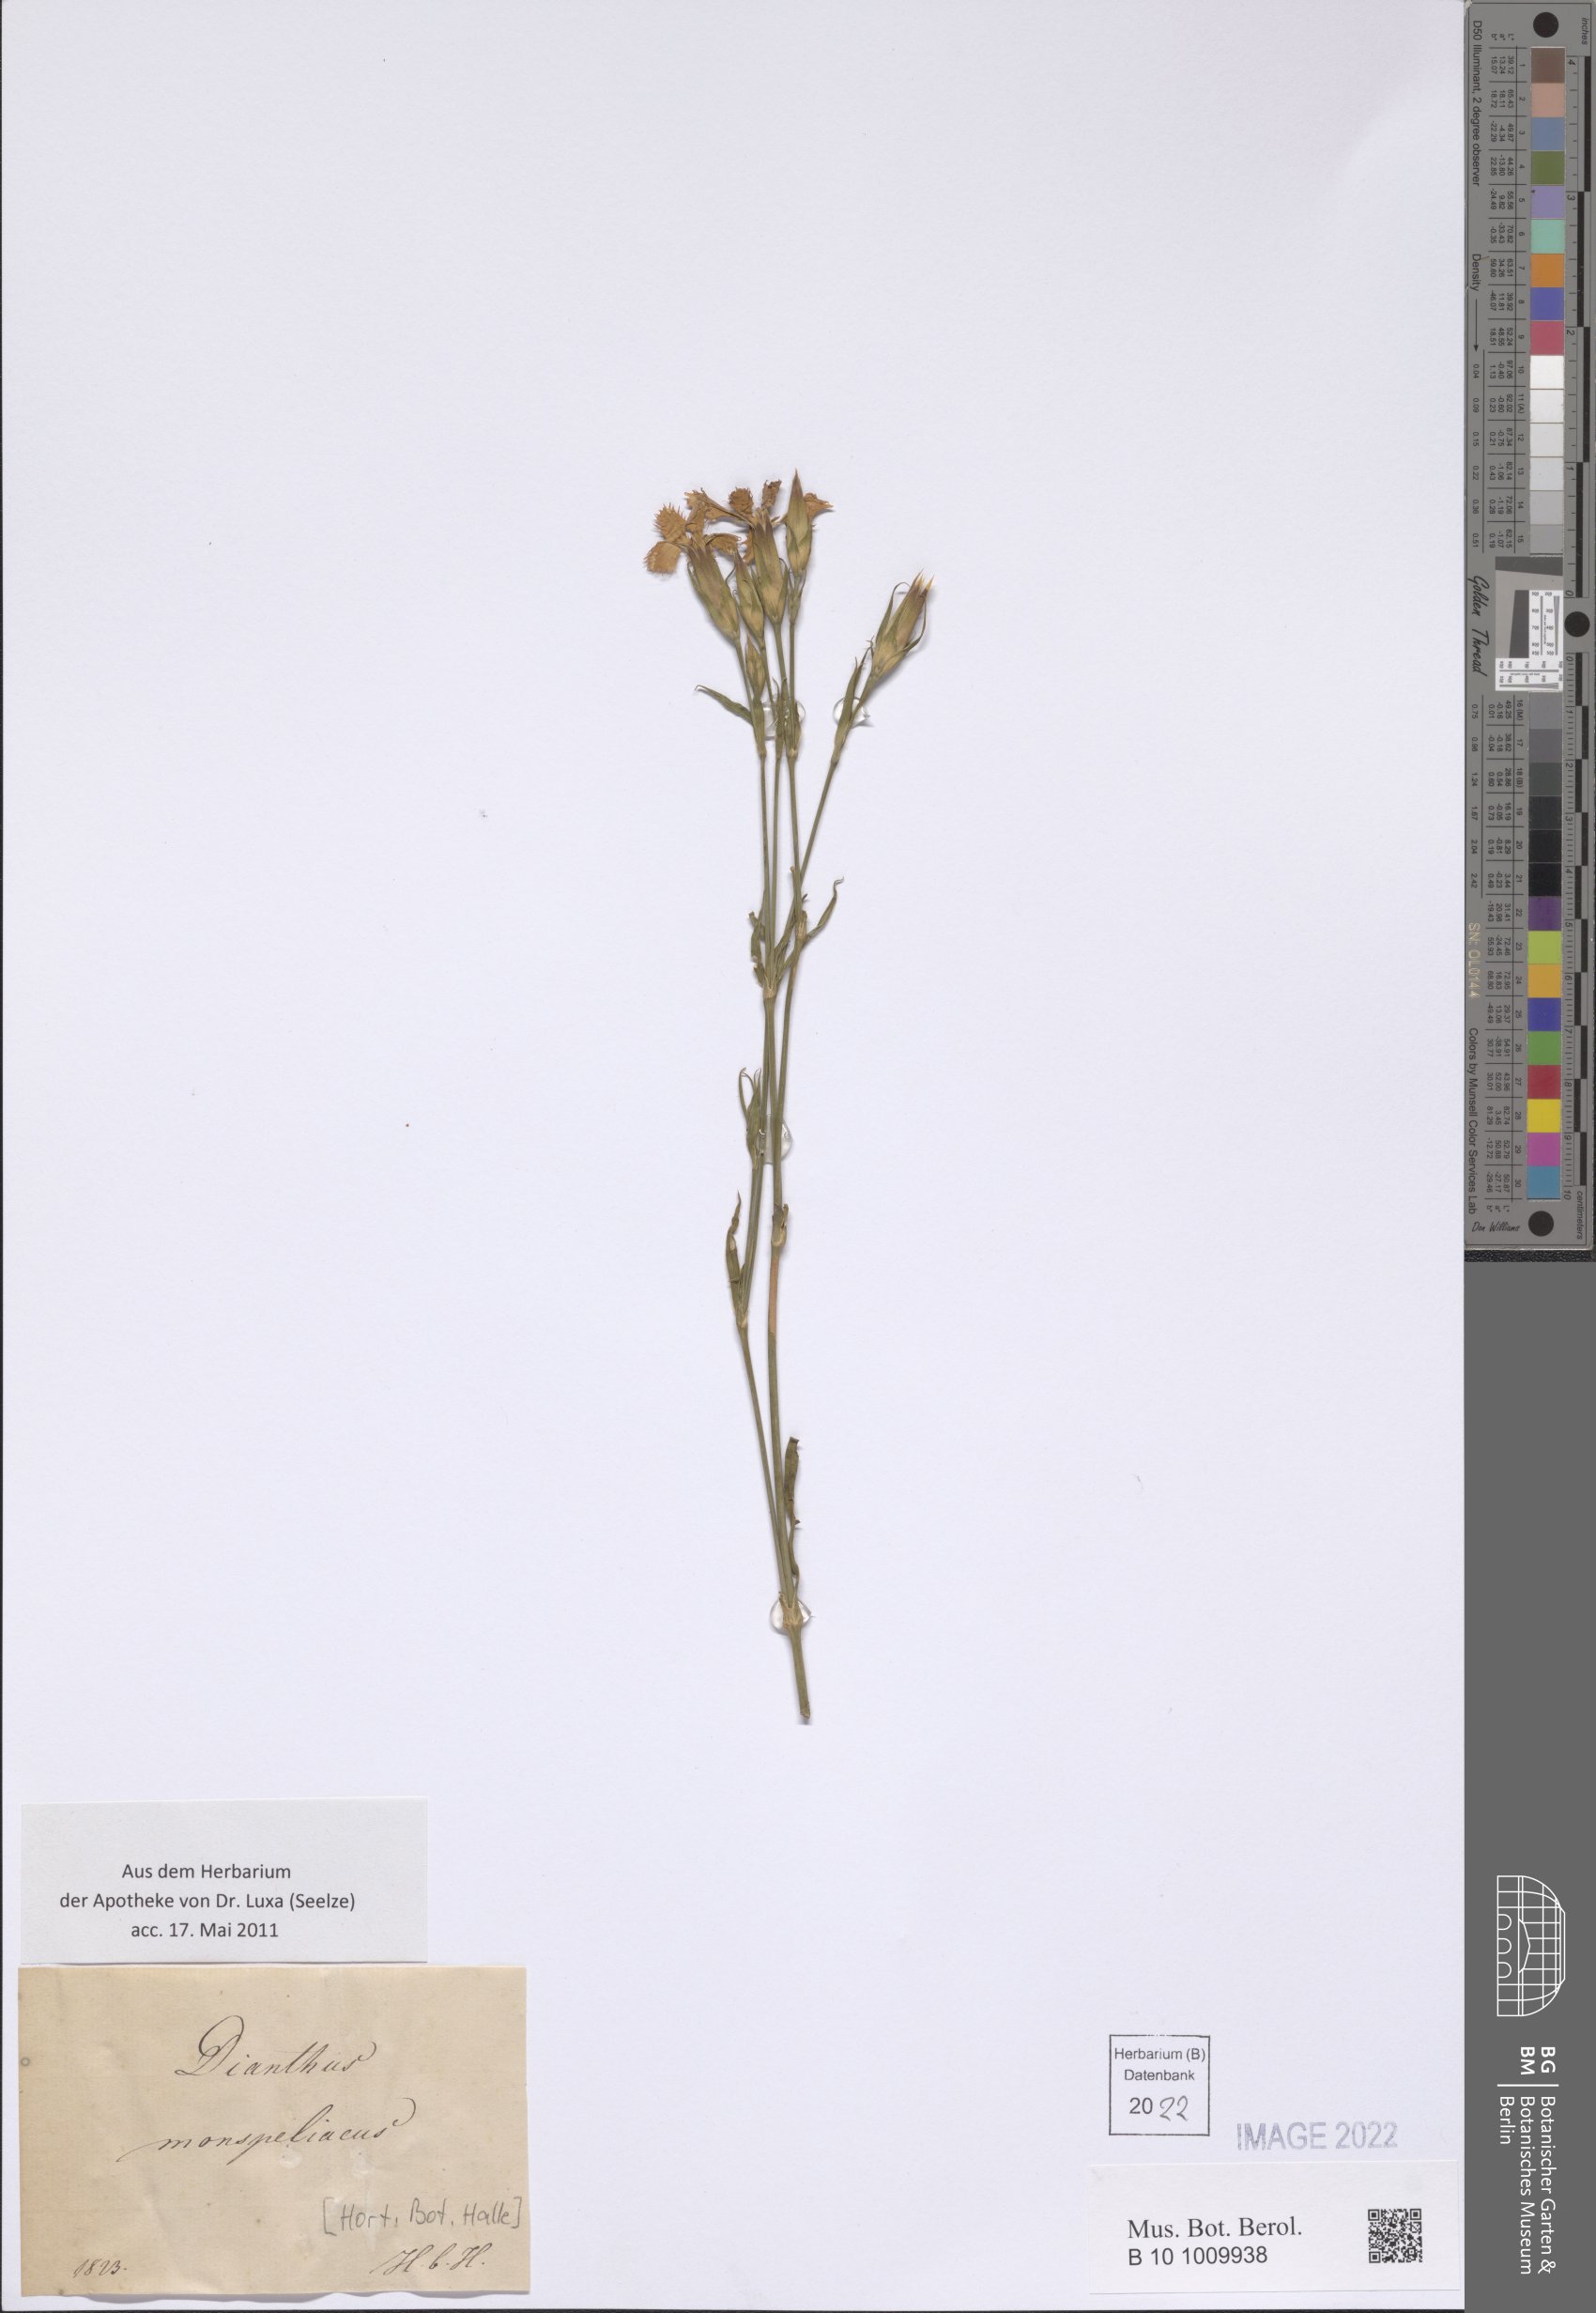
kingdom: Plantae
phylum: Tracheophyta
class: Magnoliopsida
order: Caryophyllales
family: Caryophyllaceae
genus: Dianthus
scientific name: Dianthus hyssopifolius
